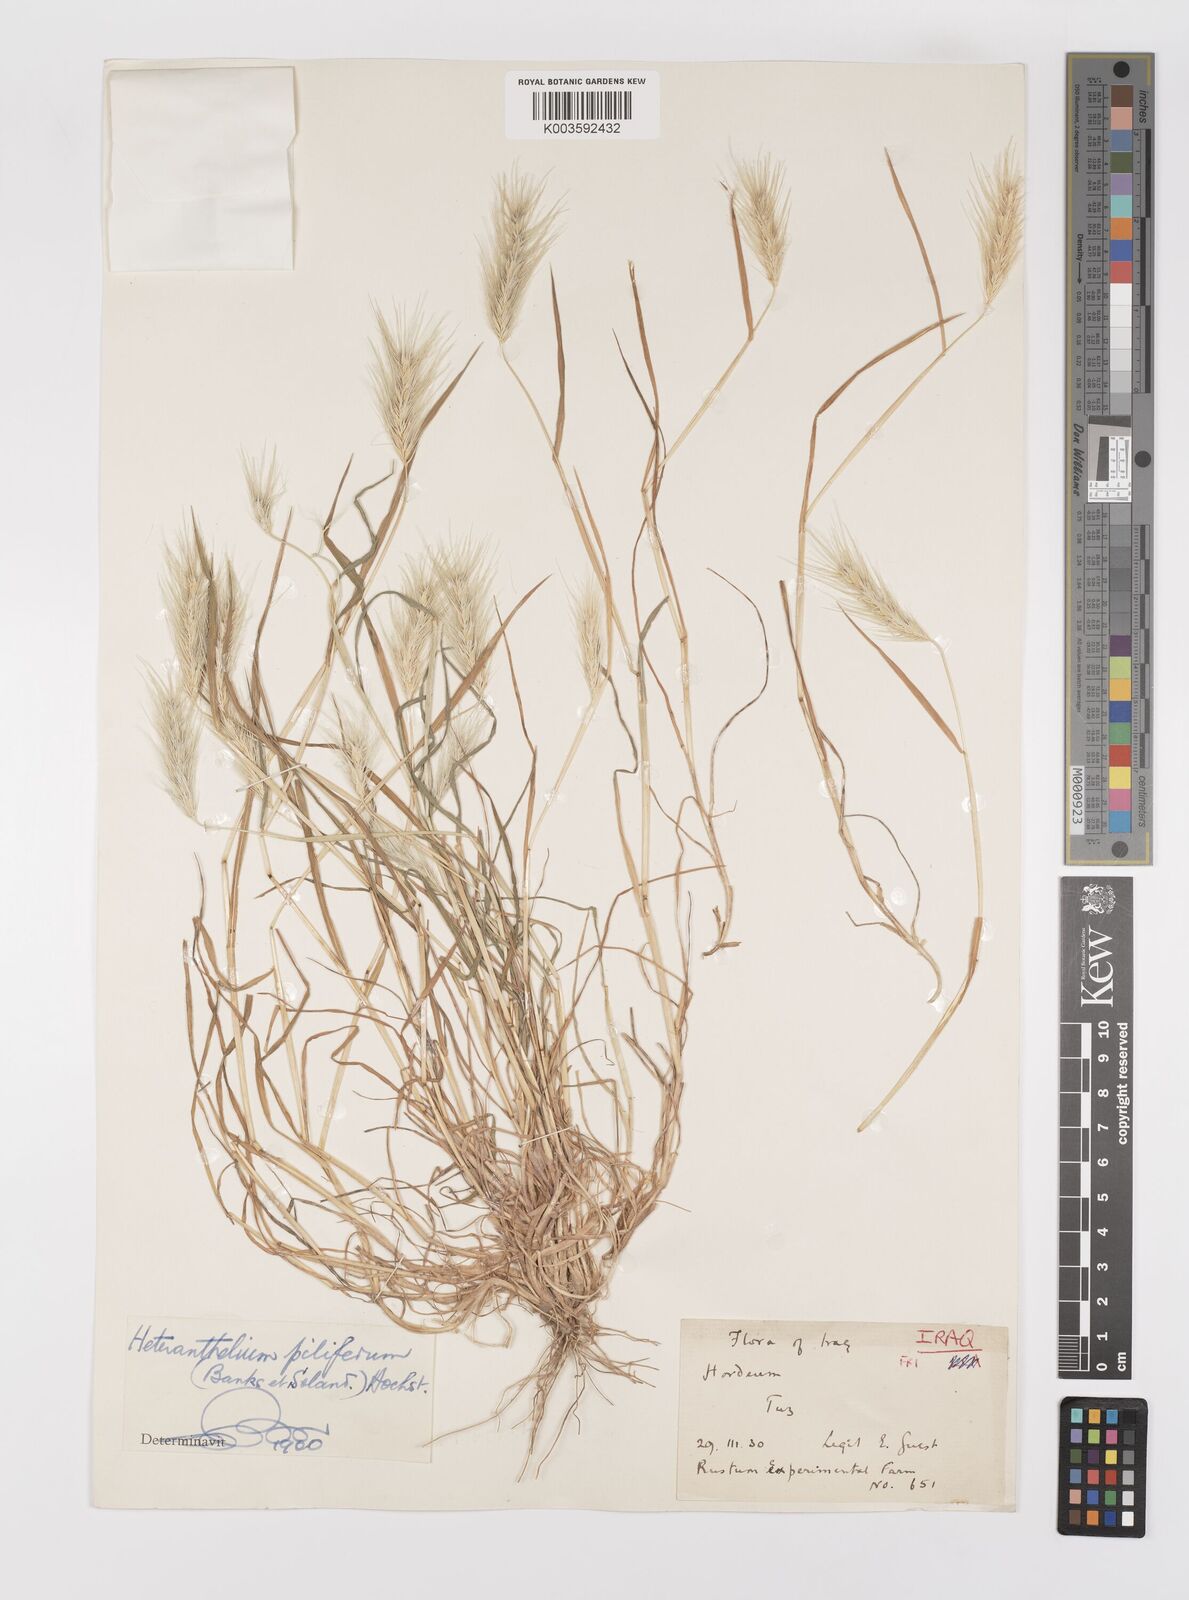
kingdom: Plantae
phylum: Tracheophyta
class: Liliopsida
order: Poales
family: Poaceae
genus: Heteranthelium
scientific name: Heteranthelium piliferum
